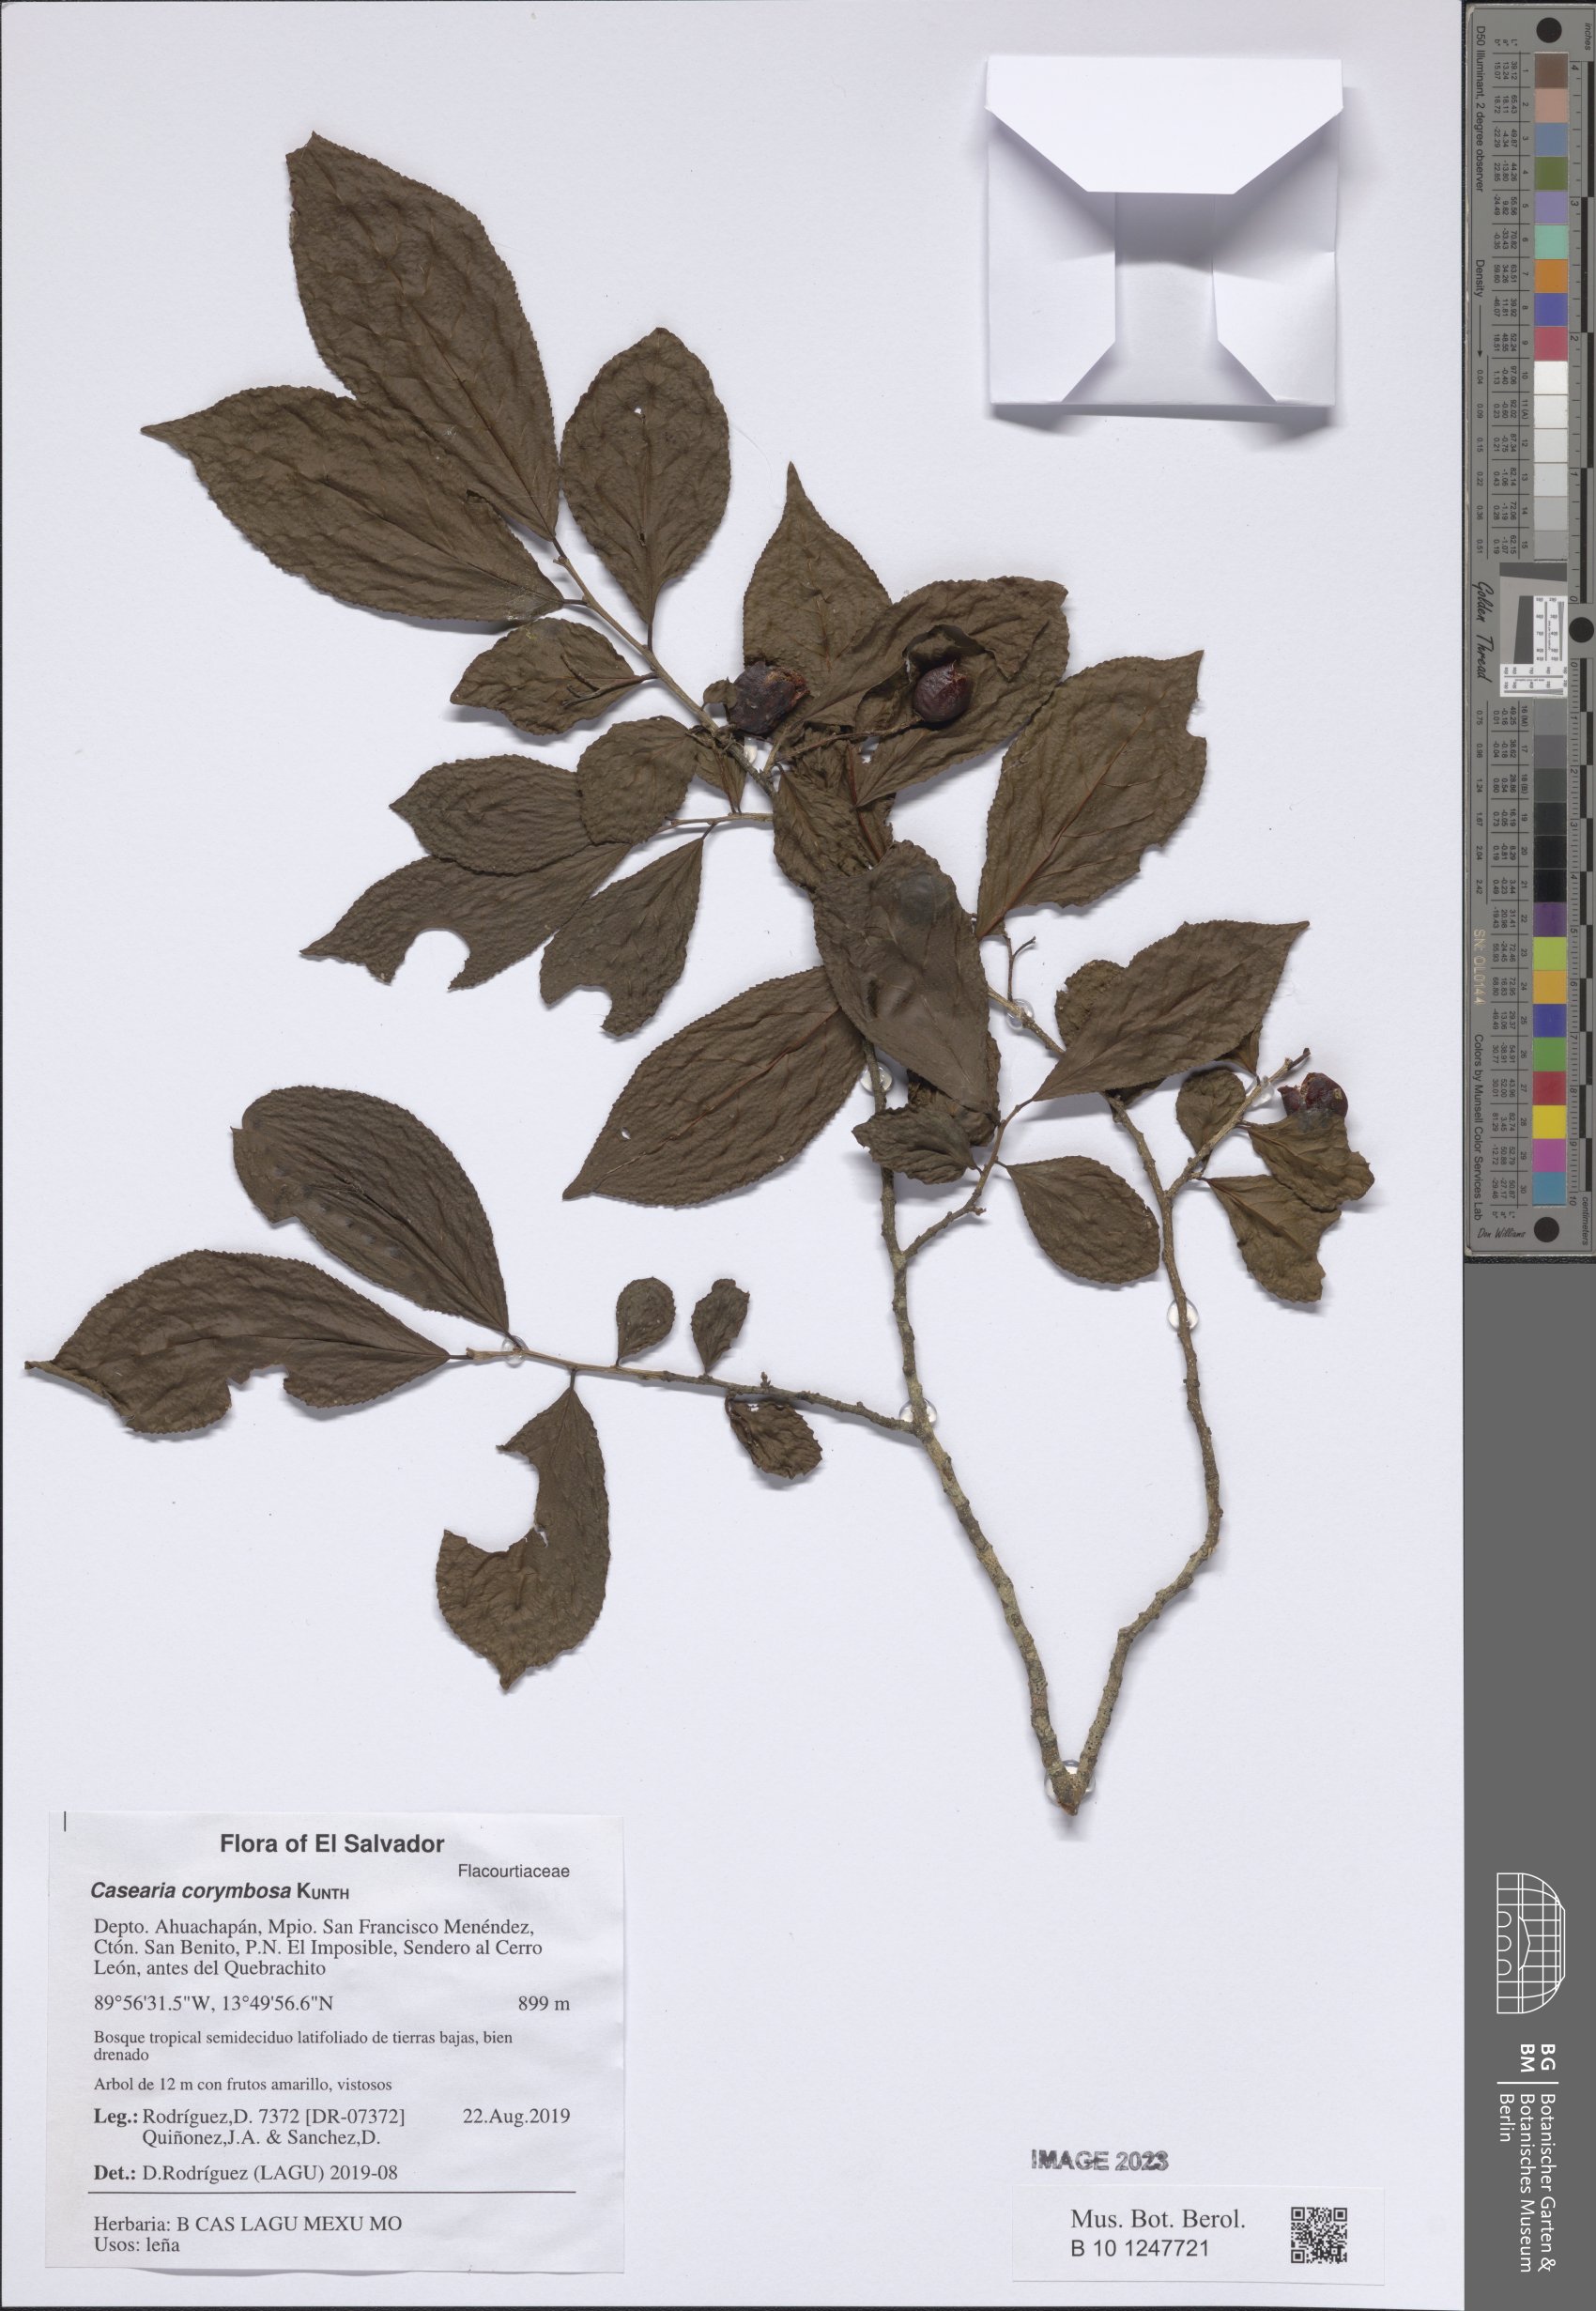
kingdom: Plantae
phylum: Tracheophyta
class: Magnoliopsida
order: Malpighiales
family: Salicaceae
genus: Casearia
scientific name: Casearia corymbosa
